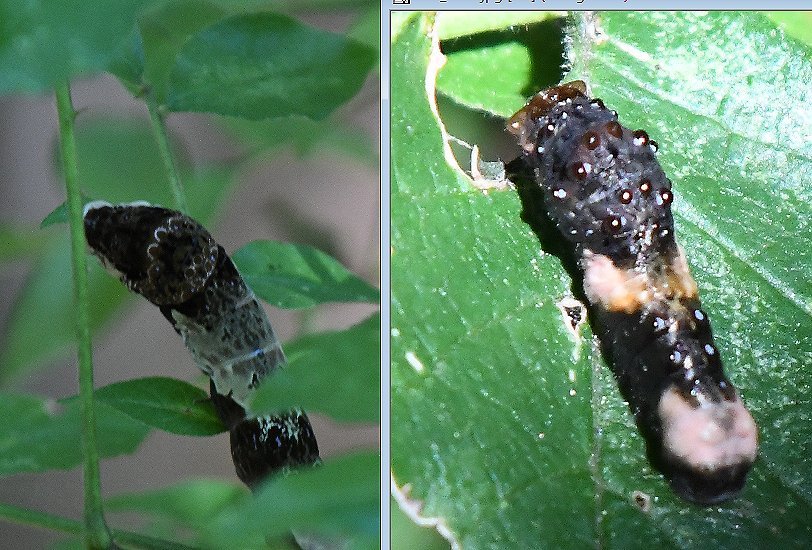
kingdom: Animalia
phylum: Arthropoda
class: Insecta
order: Lepidoptera
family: Papilionidae
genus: Papilio
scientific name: Papilio cresphontes
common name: Eastern Giant Swallowtail
